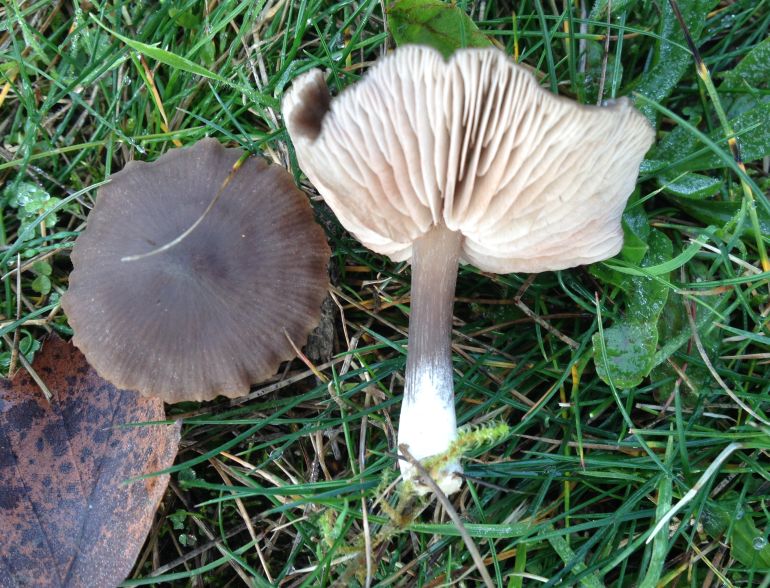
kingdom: Fungi
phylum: Basidiomycota
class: Agaricomycetes
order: Agaricales
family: Entolomataceae
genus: Entoloma
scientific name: Entoloma sericeum
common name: silkeglinsende rødblad
